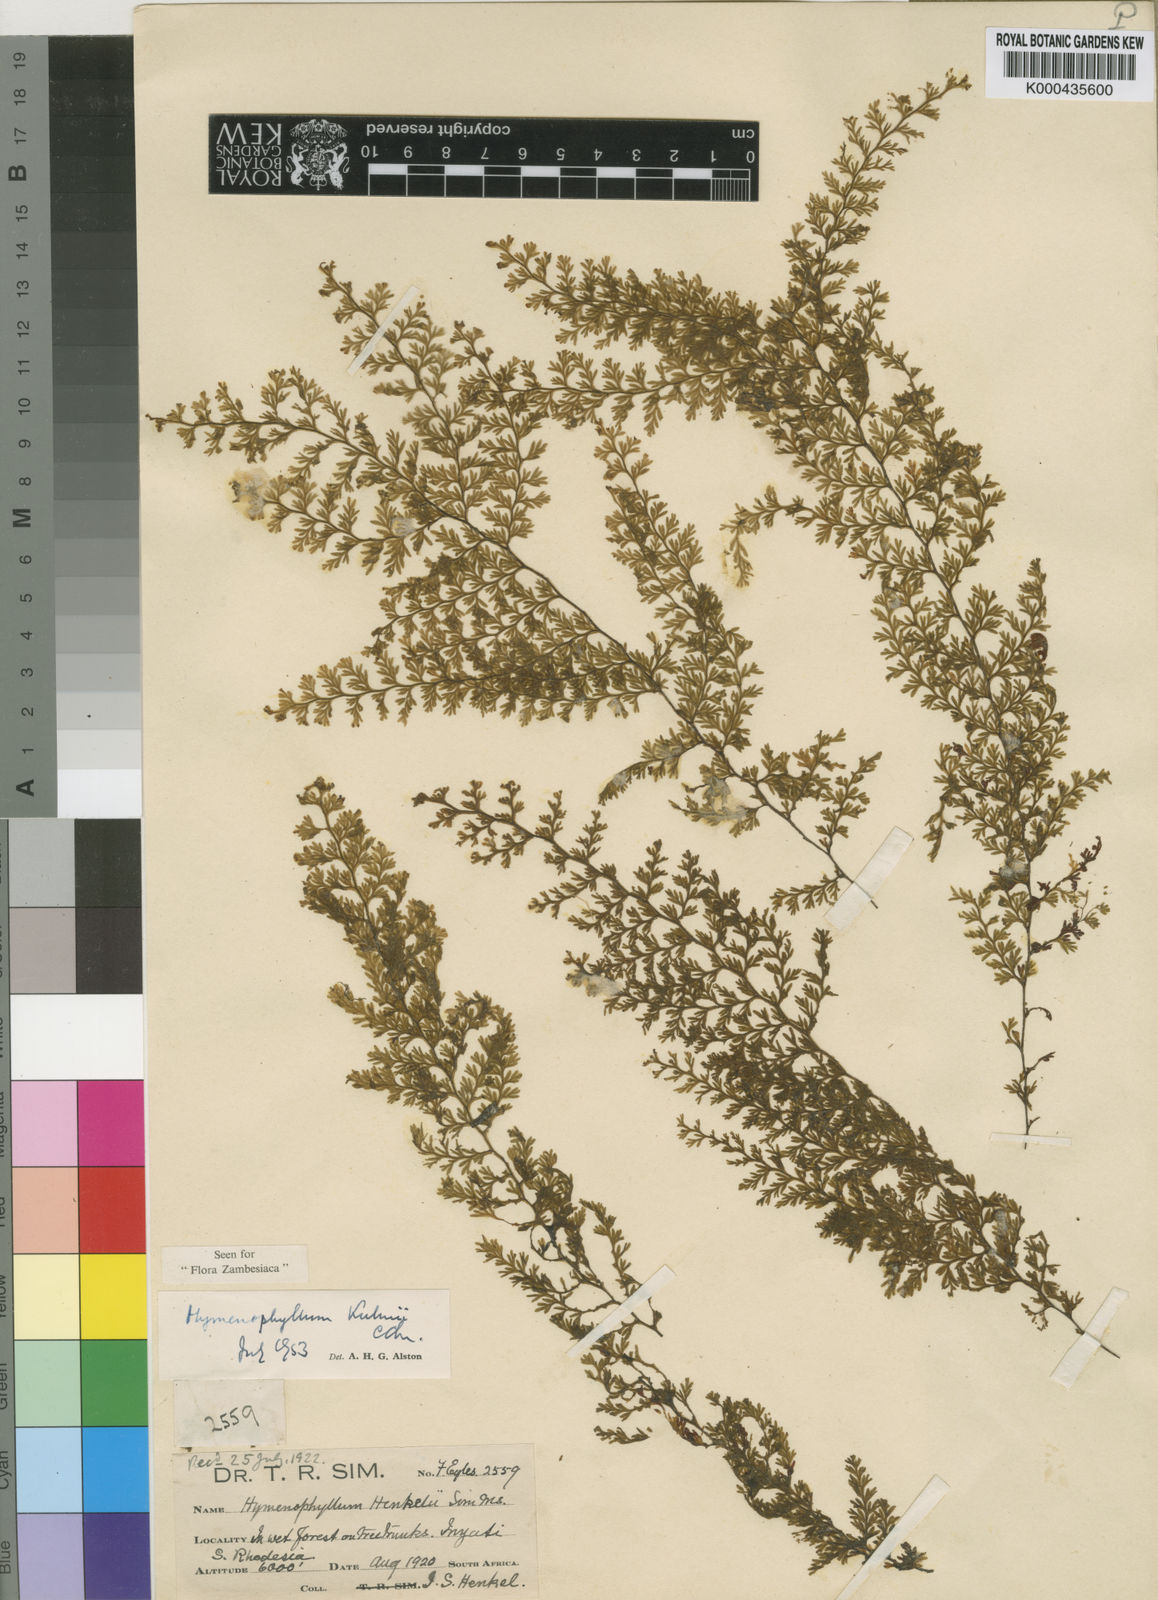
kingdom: Plantae
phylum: Tracheophyta
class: Polypodiopsida
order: Hymenophyllales
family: Hymenophyllaceae
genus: Hymenophyllum
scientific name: Hymenophyllum kuhnii
